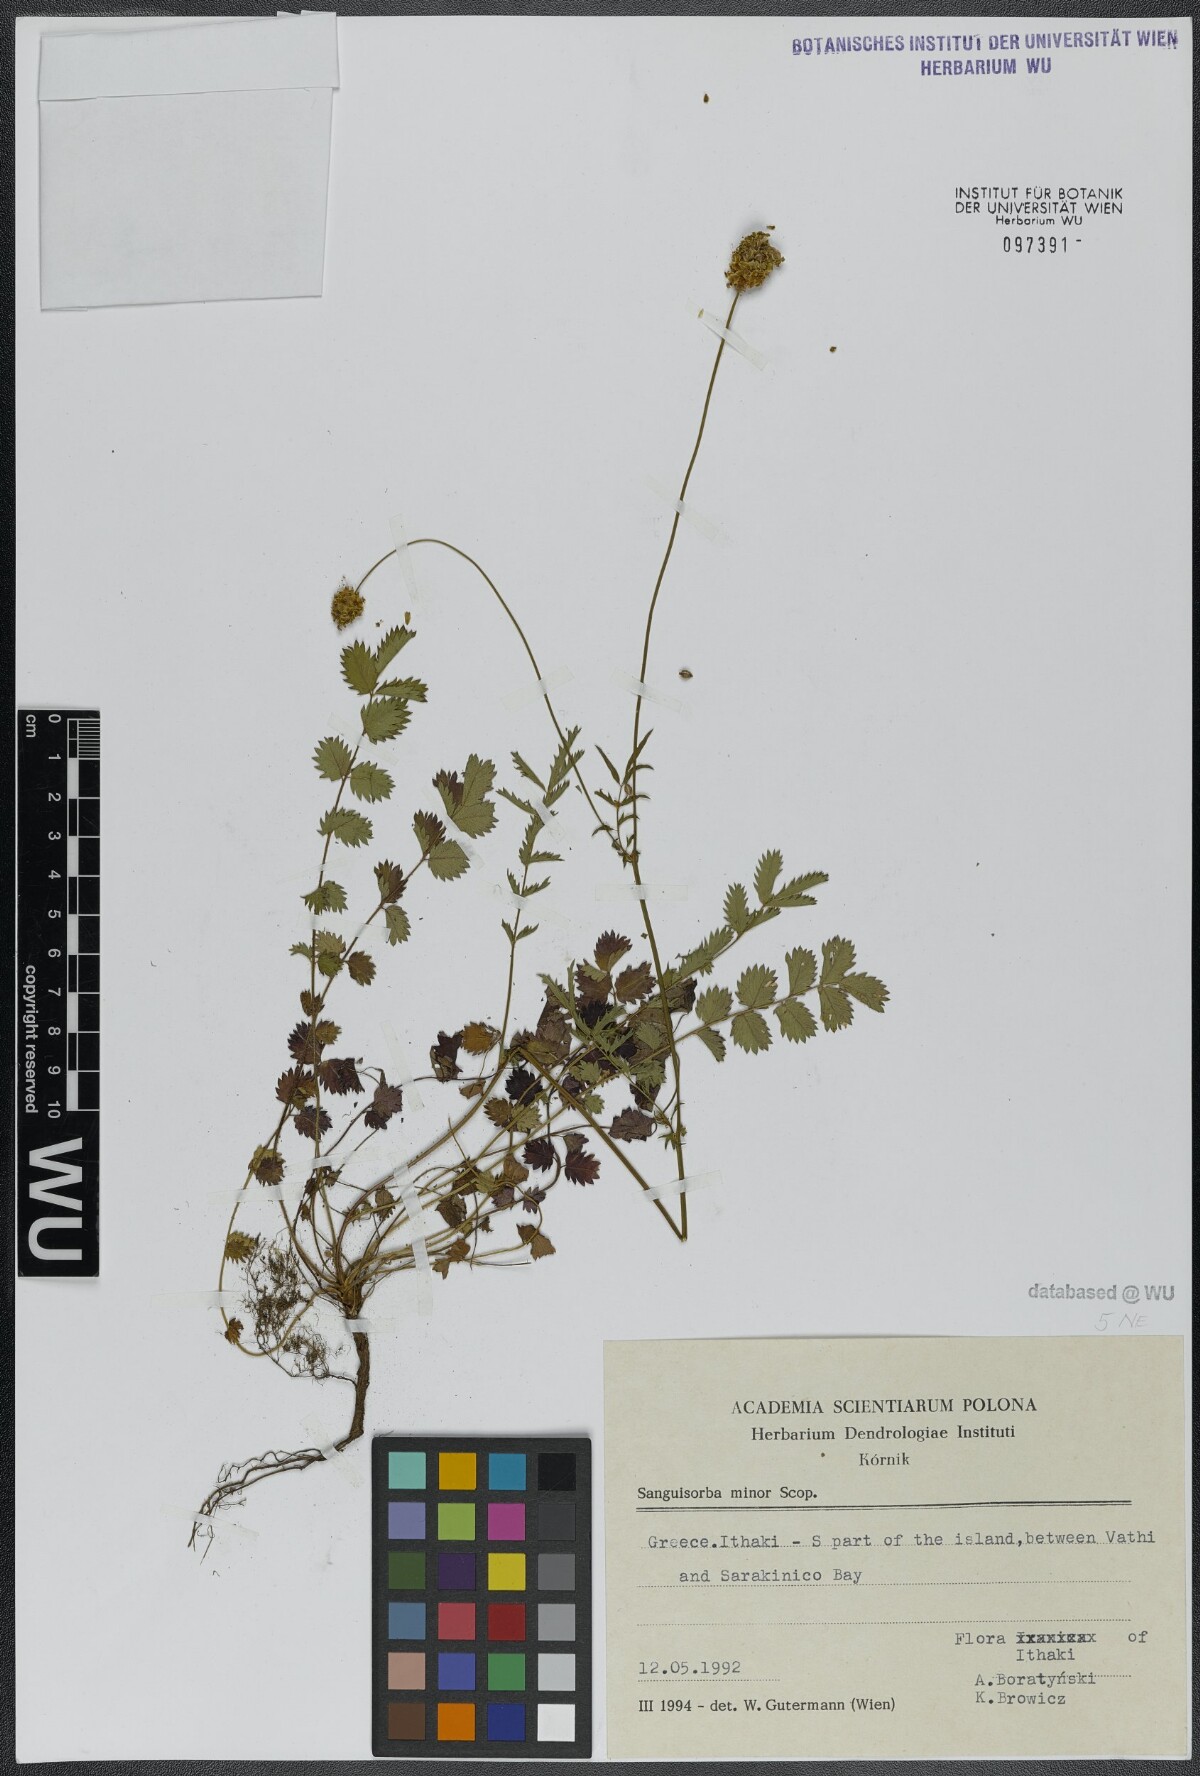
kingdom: Plantae
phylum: Tracheophyta
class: Magnoliopsida
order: Rosales
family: Rosaceae
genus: Poterium
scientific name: Poterium sanguisorba
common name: Salad burnet
